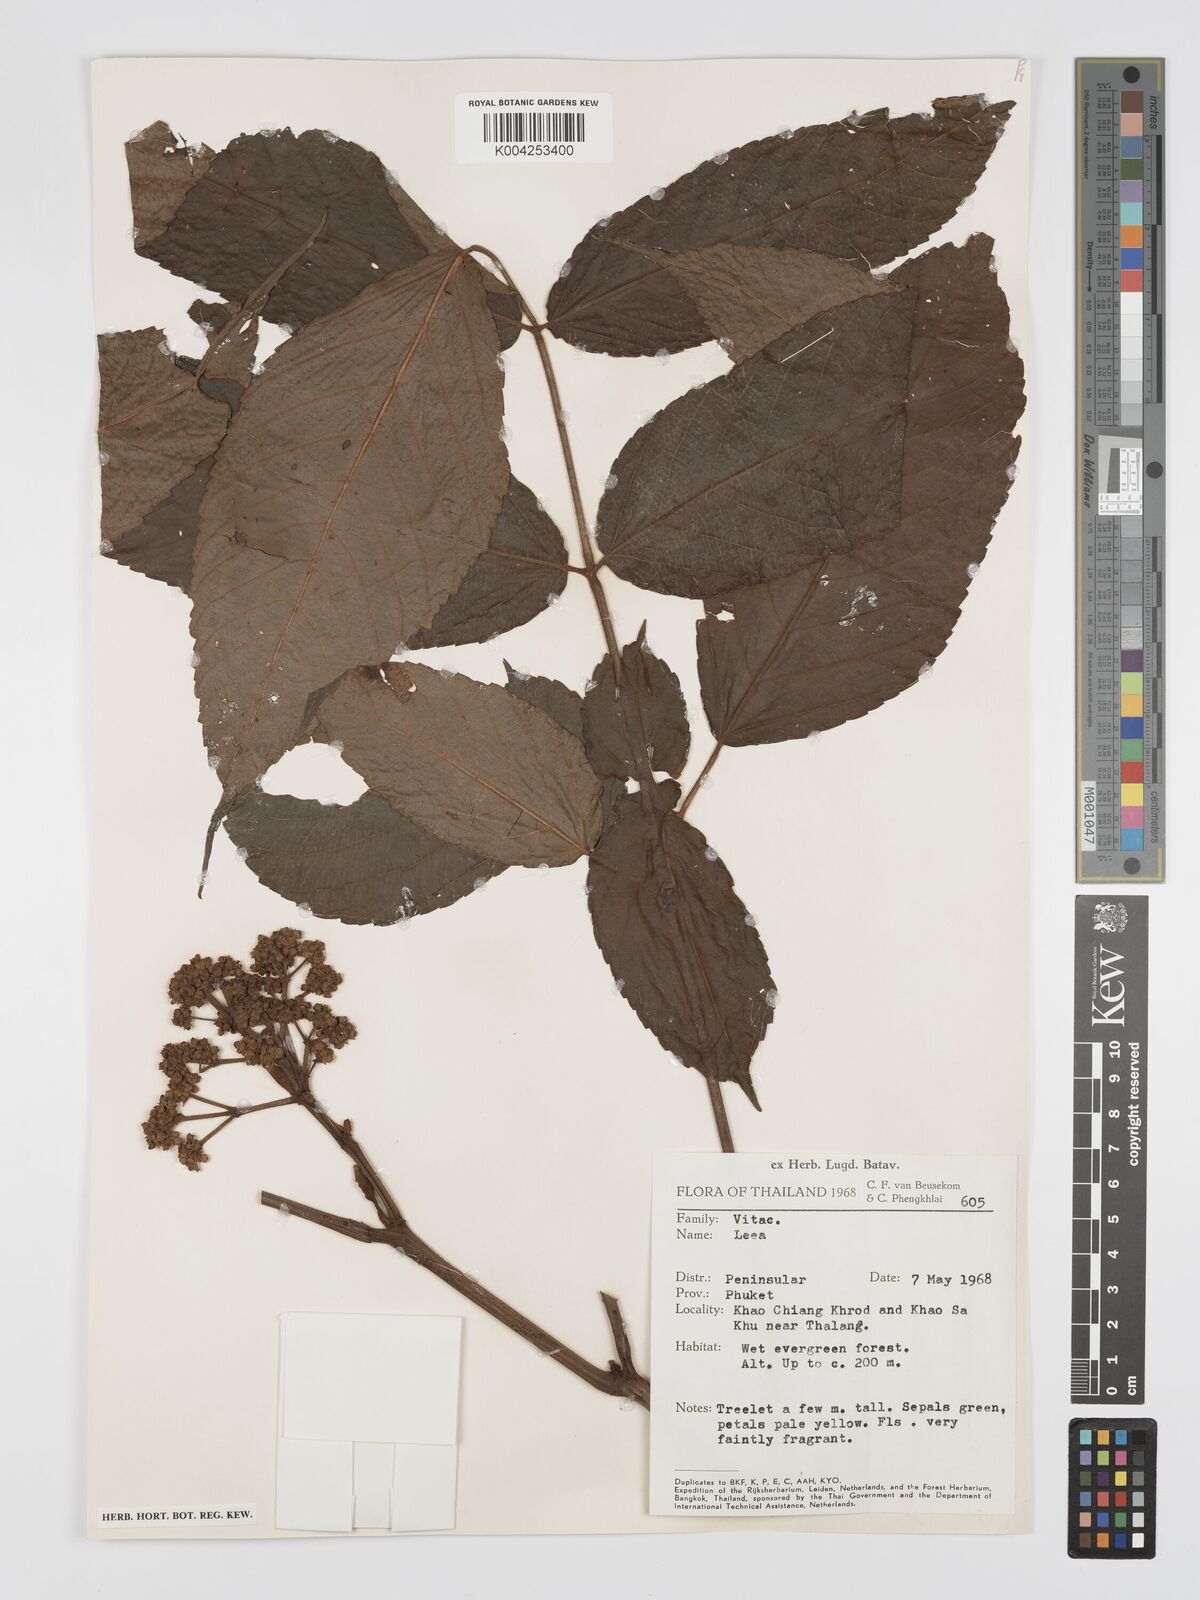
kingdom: Plantae
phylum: Tracheophyta
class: Magnoliopsida
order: Vitales
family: Vitaceae
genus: Leea
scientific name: Leea
